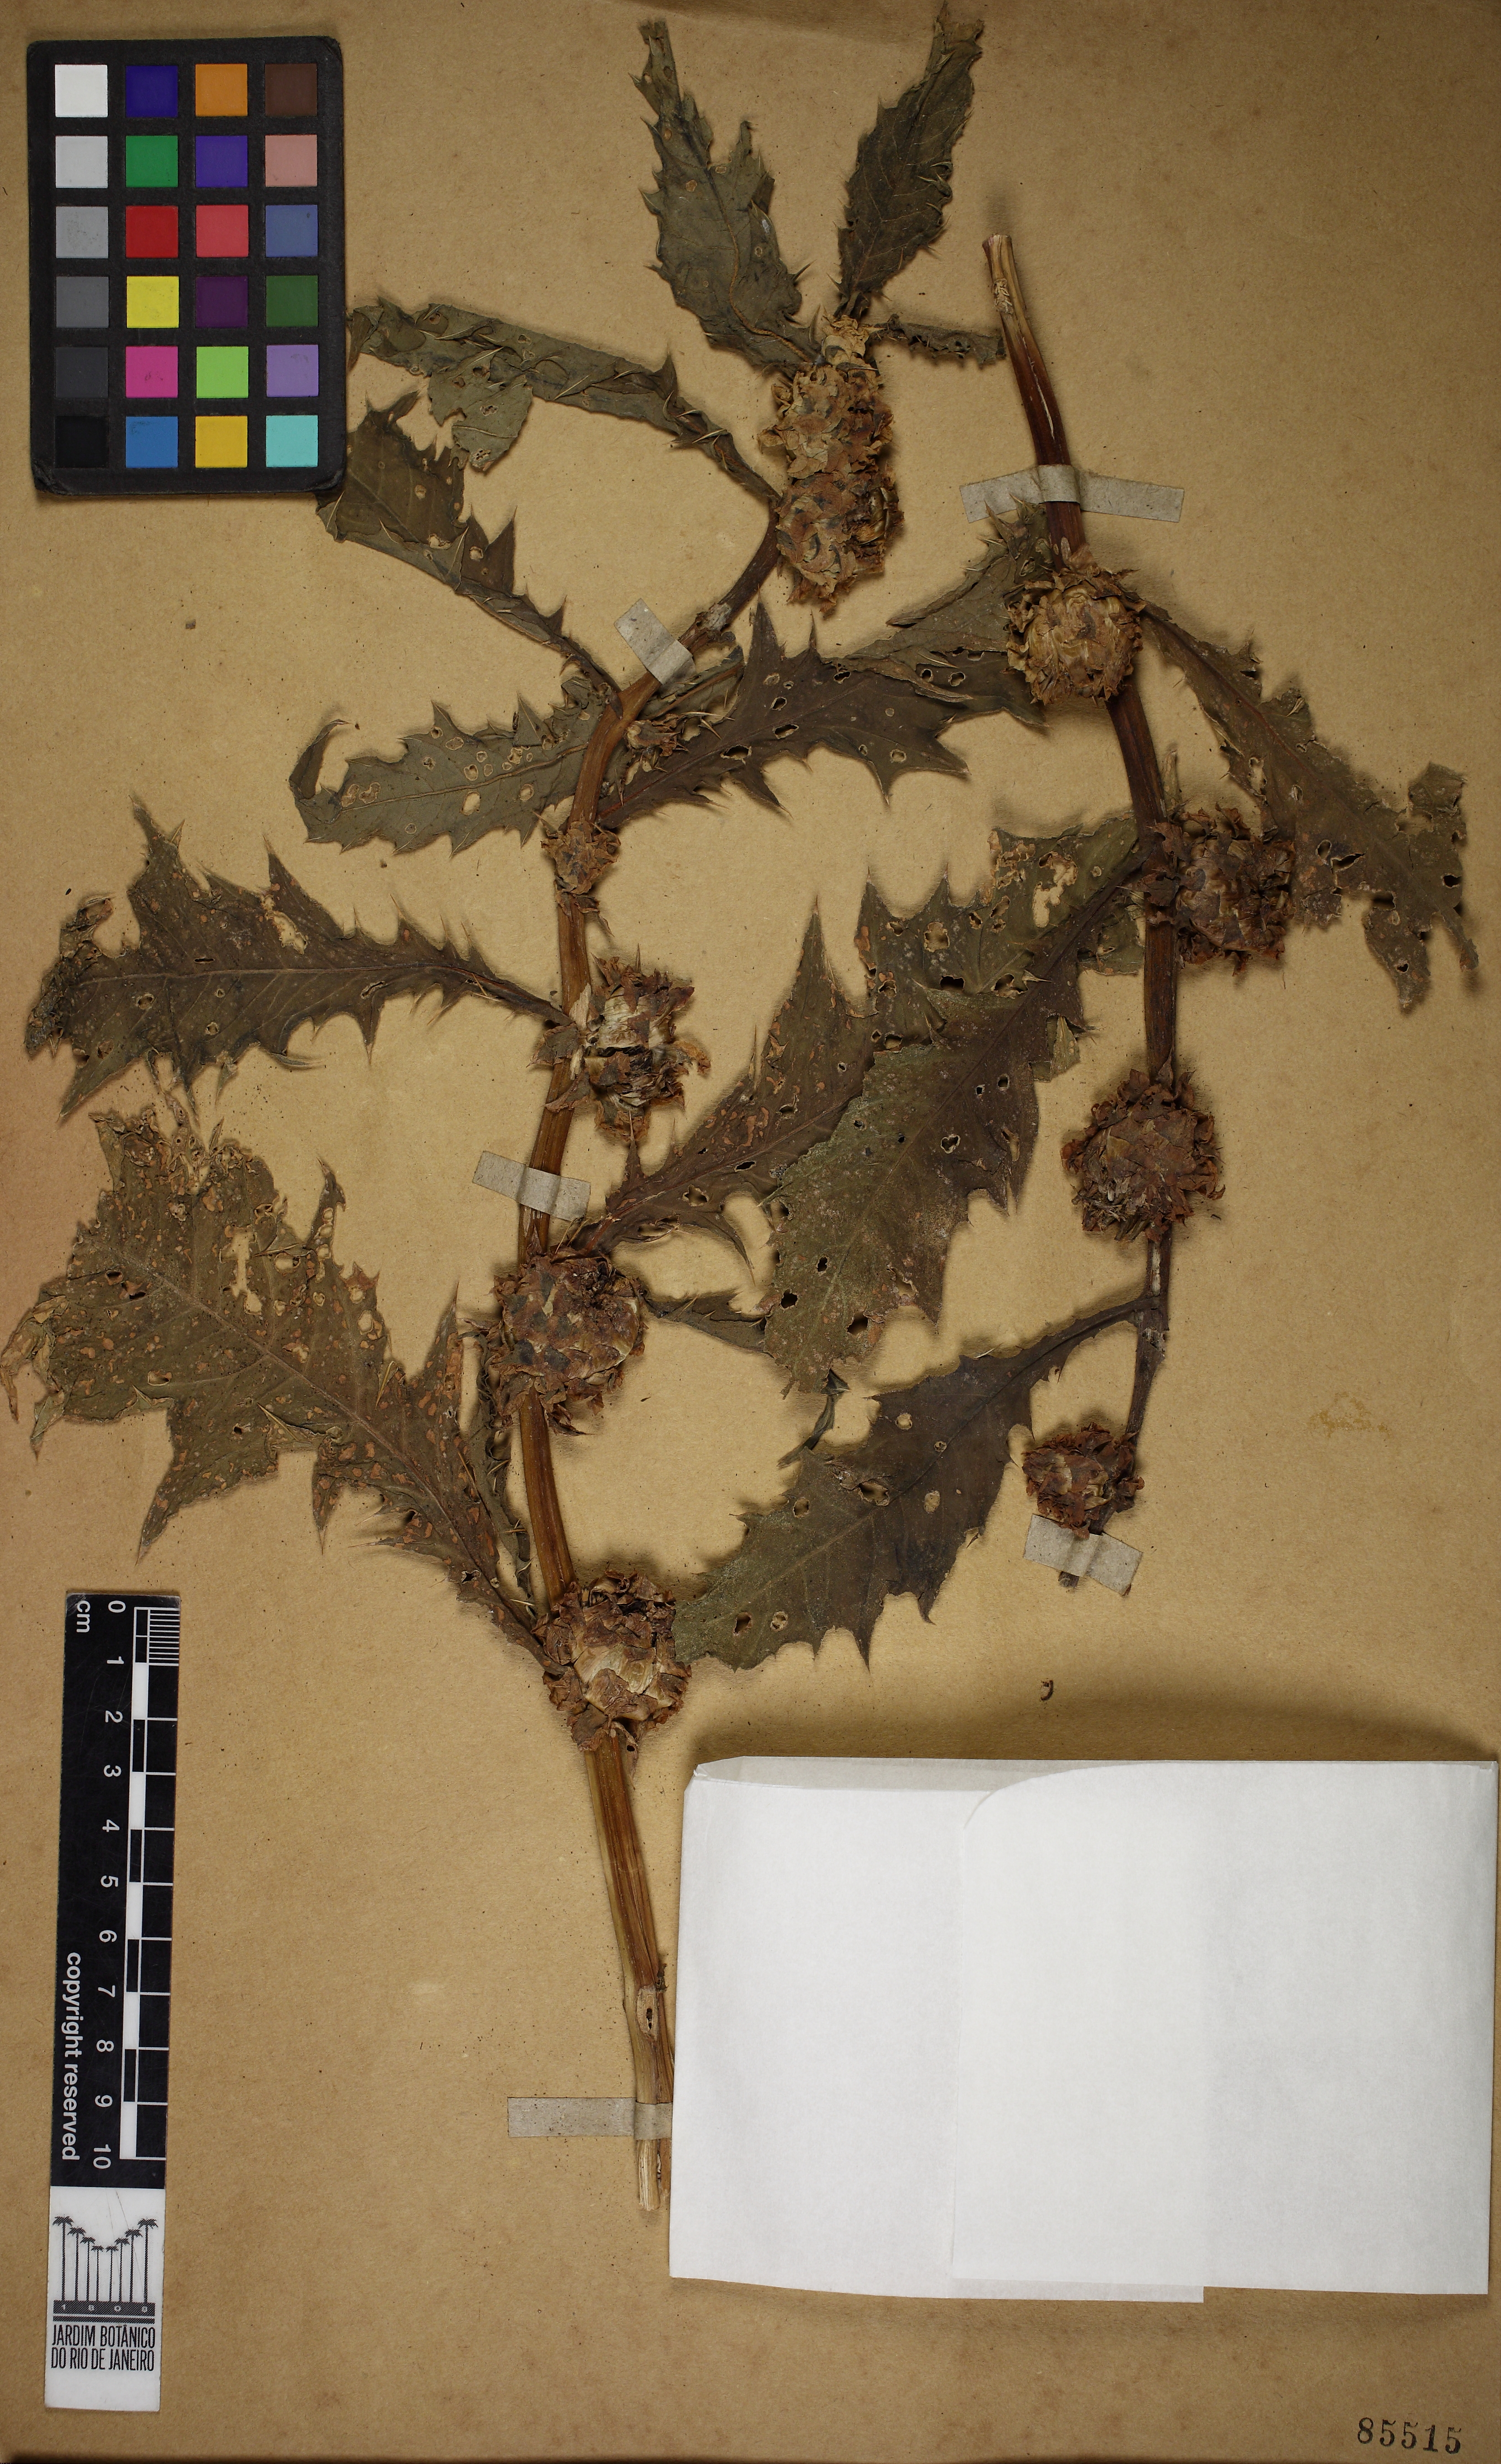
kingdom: Plantae
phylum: Tracheophyta
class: Magnoliopsida
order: Asterales
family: Asteraceae
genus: Pacourina
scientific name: Pacourina edulis
